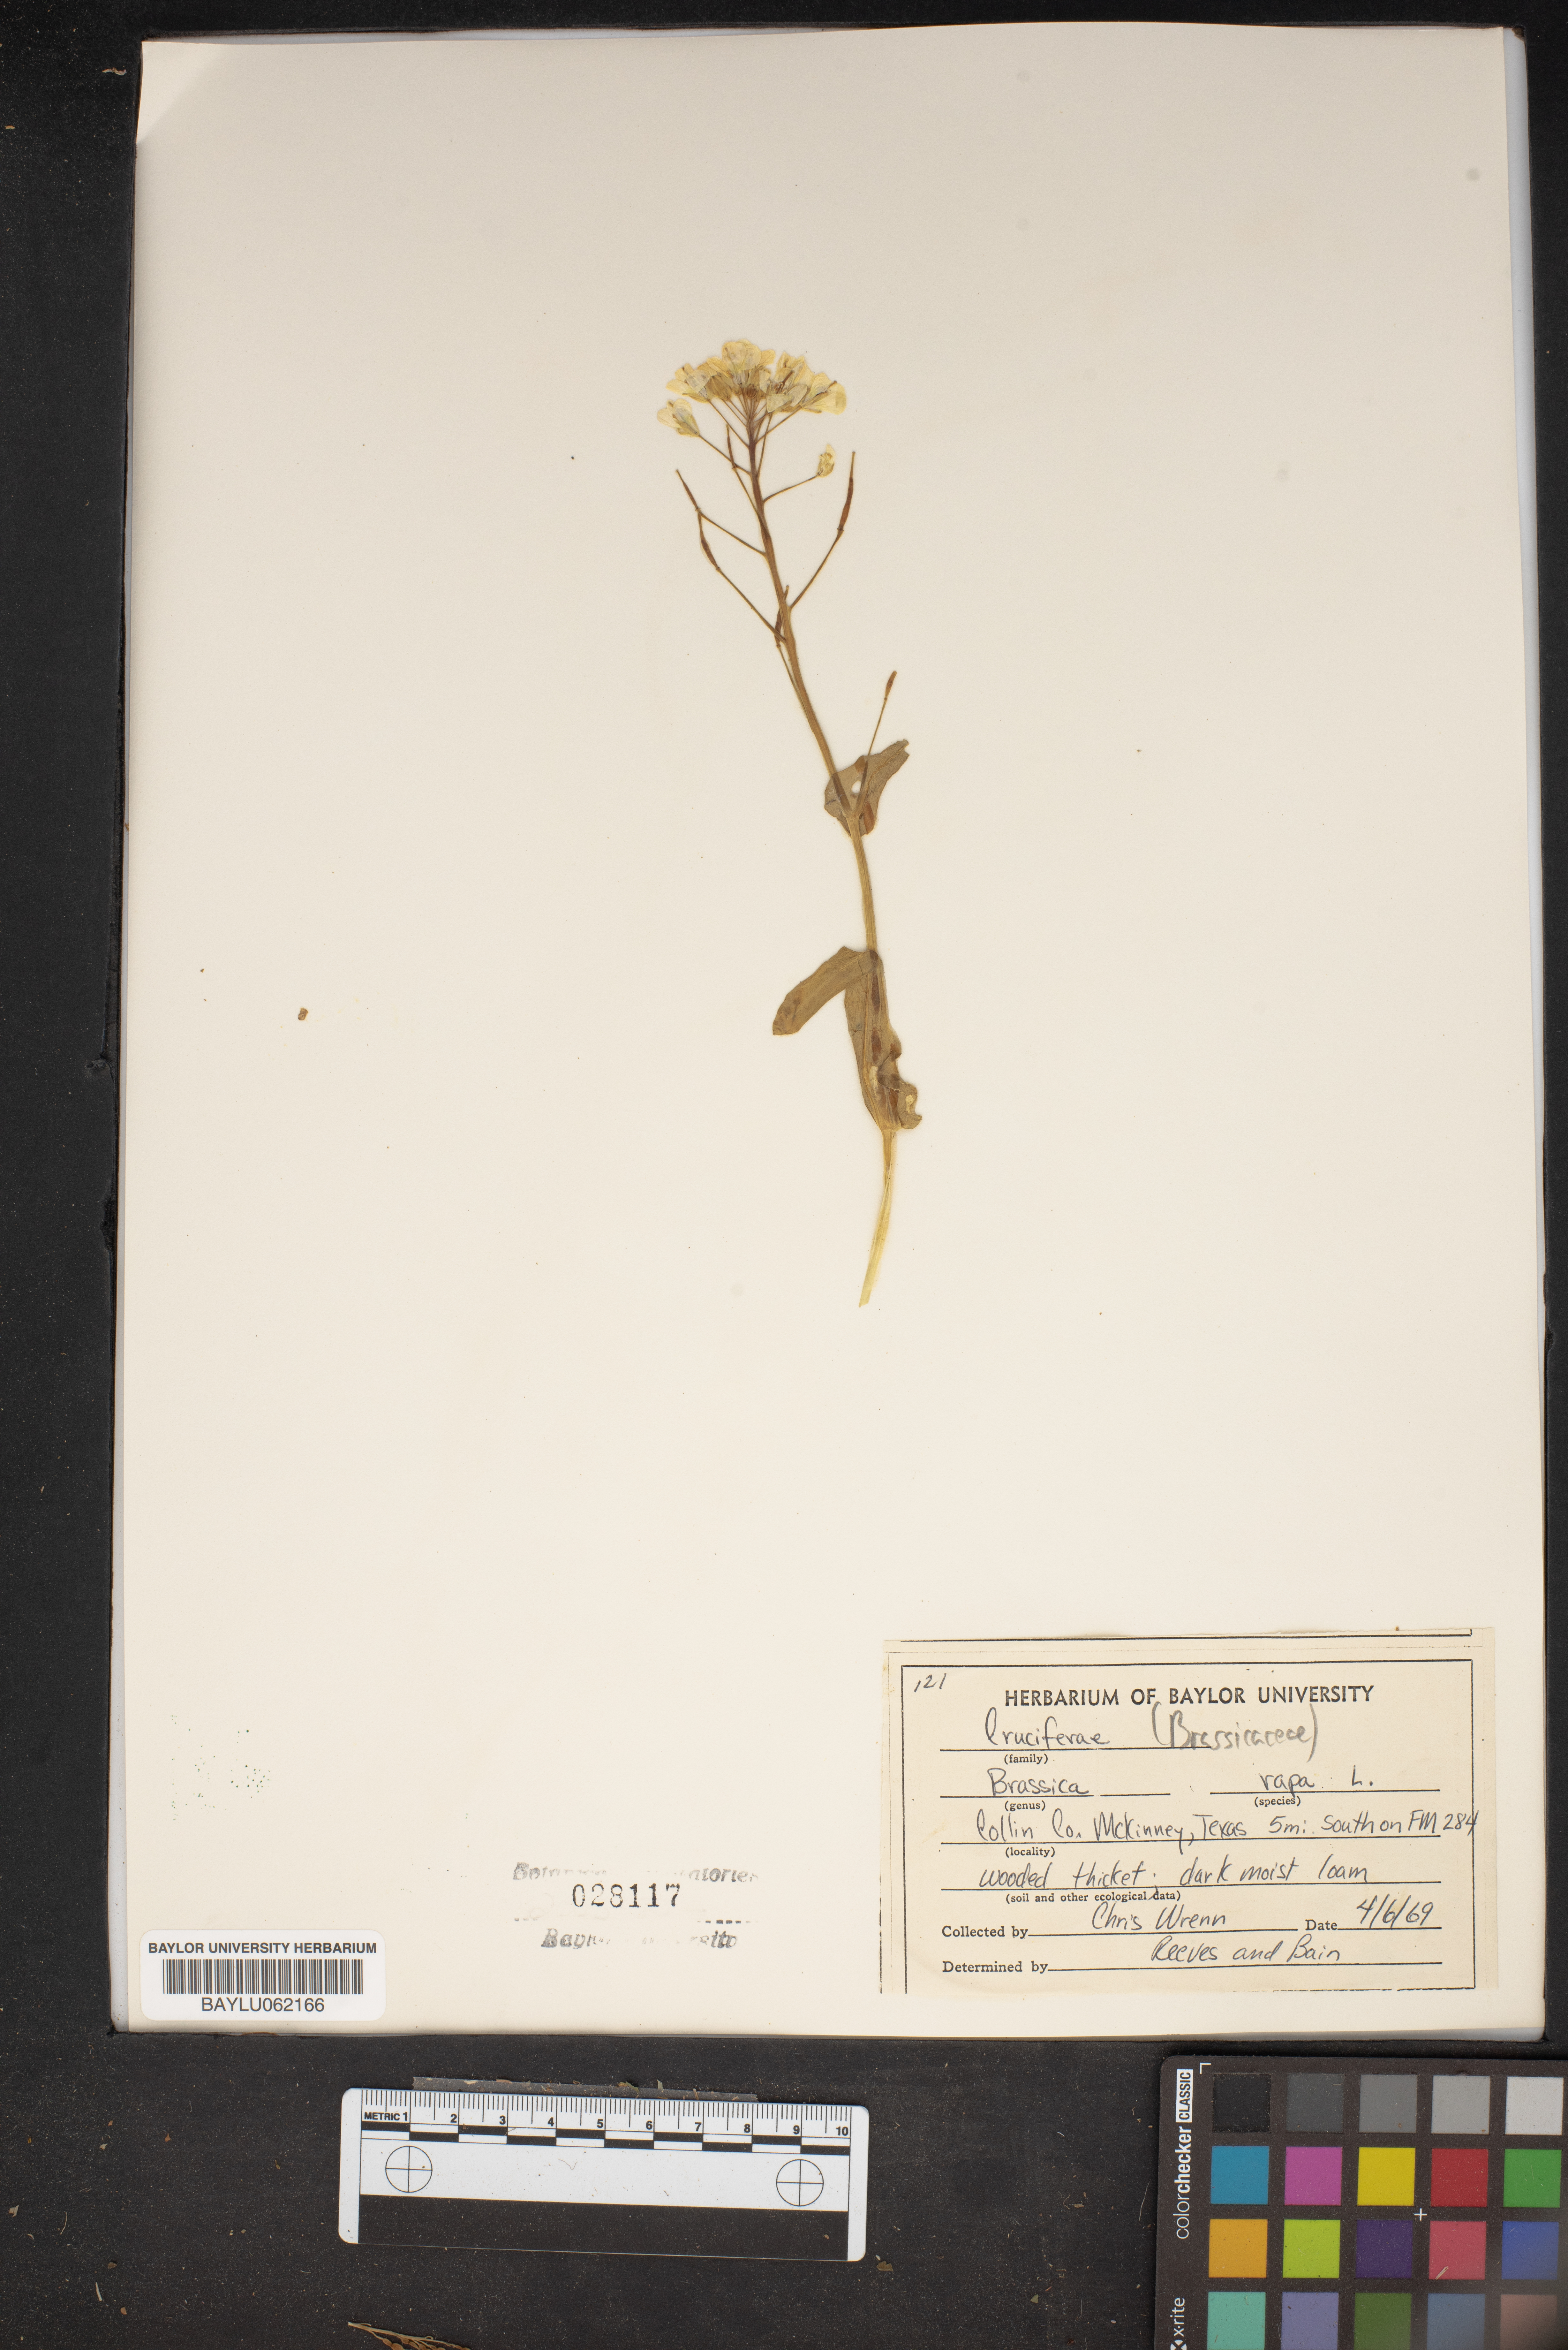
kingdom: Plantae
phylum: Tracheophyta
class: Magnoliopsida
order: Brassicales
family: Brassicaceae
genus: Brassica
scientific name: Brassica rapa
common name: Field mustard
